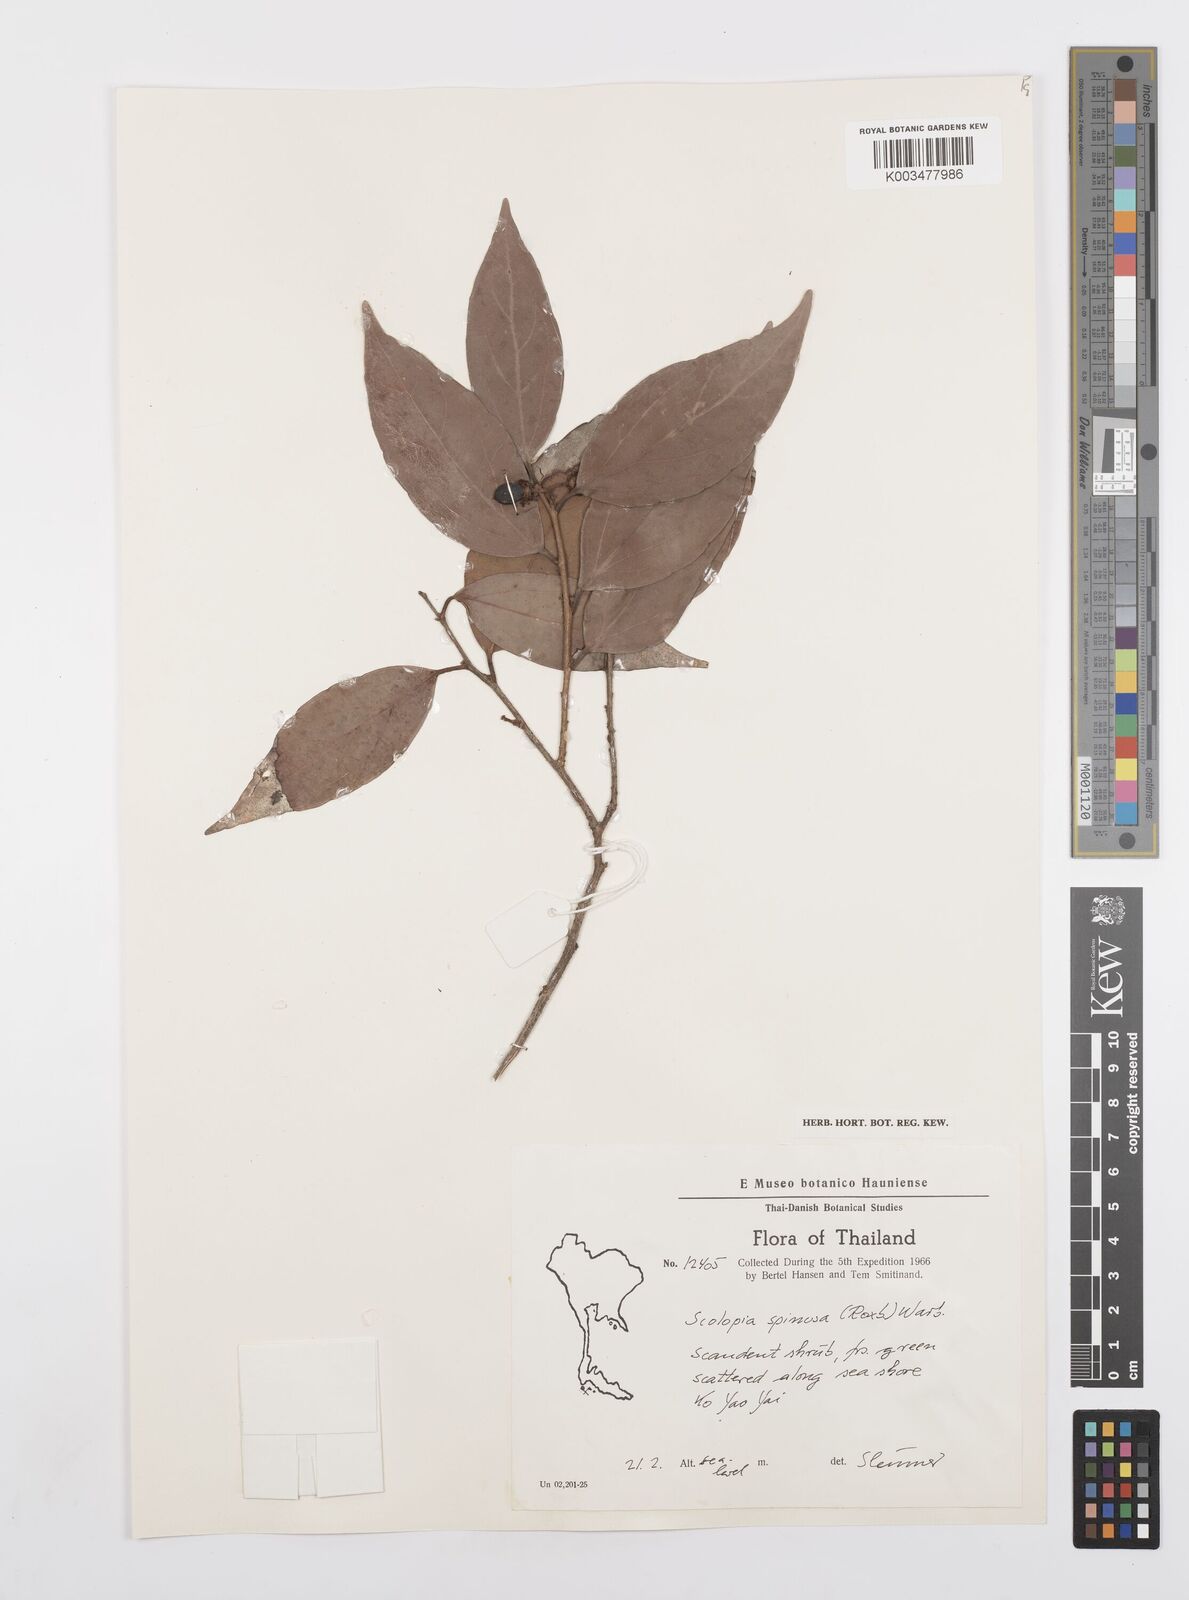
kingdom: Plantae
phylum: Tracheophyta
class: Magnoliopsida
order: Malpighiales
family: Salicaceae
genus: Scolopia
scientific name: Scolopia spinosa
